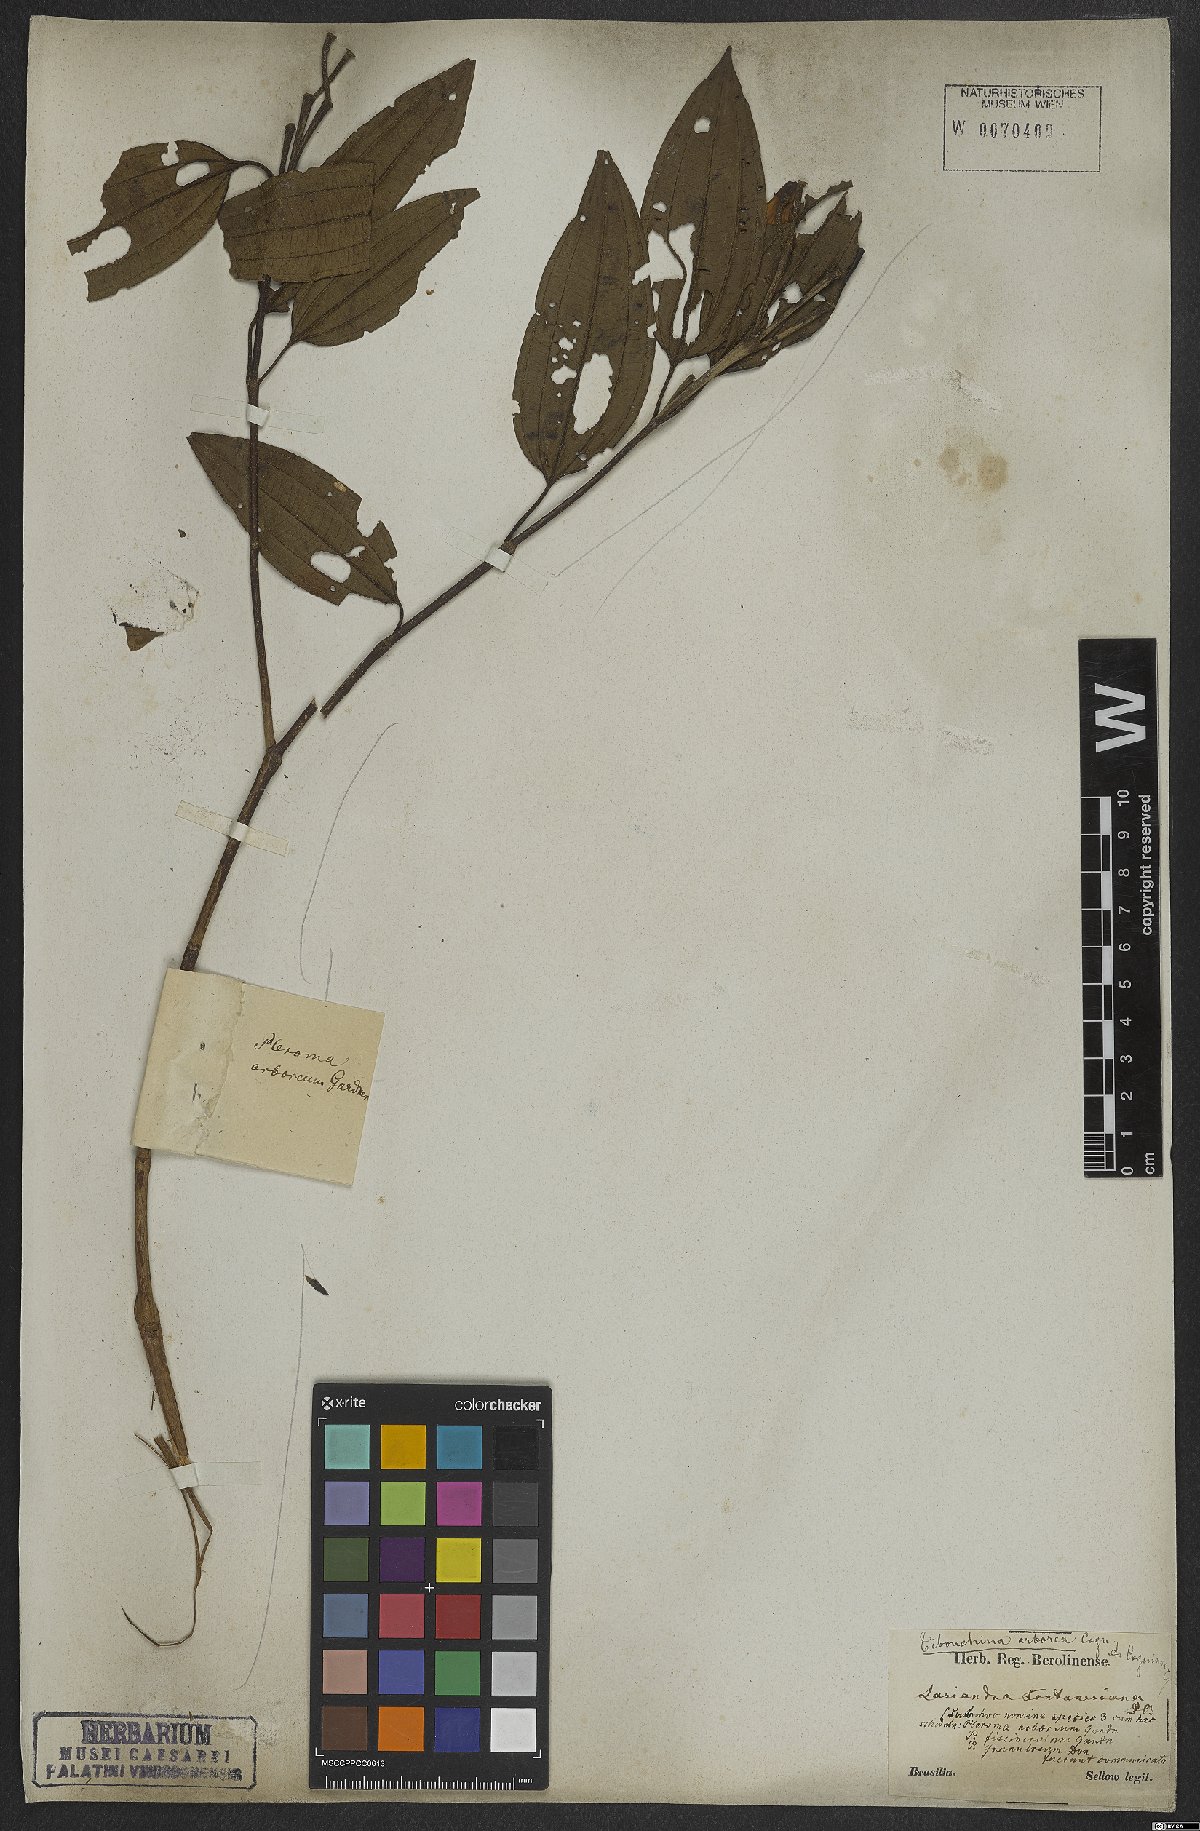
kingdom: Plantae
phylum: Tracheophyta
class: Magnoliopsida
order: Myrtales
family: Melastomataceae
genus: Pleroma
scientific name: Pleroma arboreum
